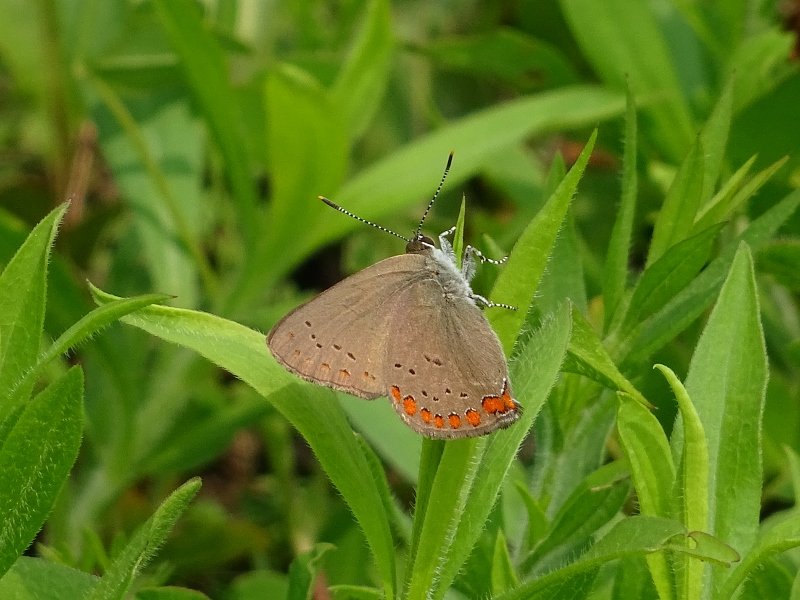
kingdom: Animalia
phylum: Arthropoda
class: Insecta
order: Lepidoptera
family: Lycaenidae
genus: Harkenclenus
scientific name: Harkenclenus titus
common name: Coral Hairstreak
